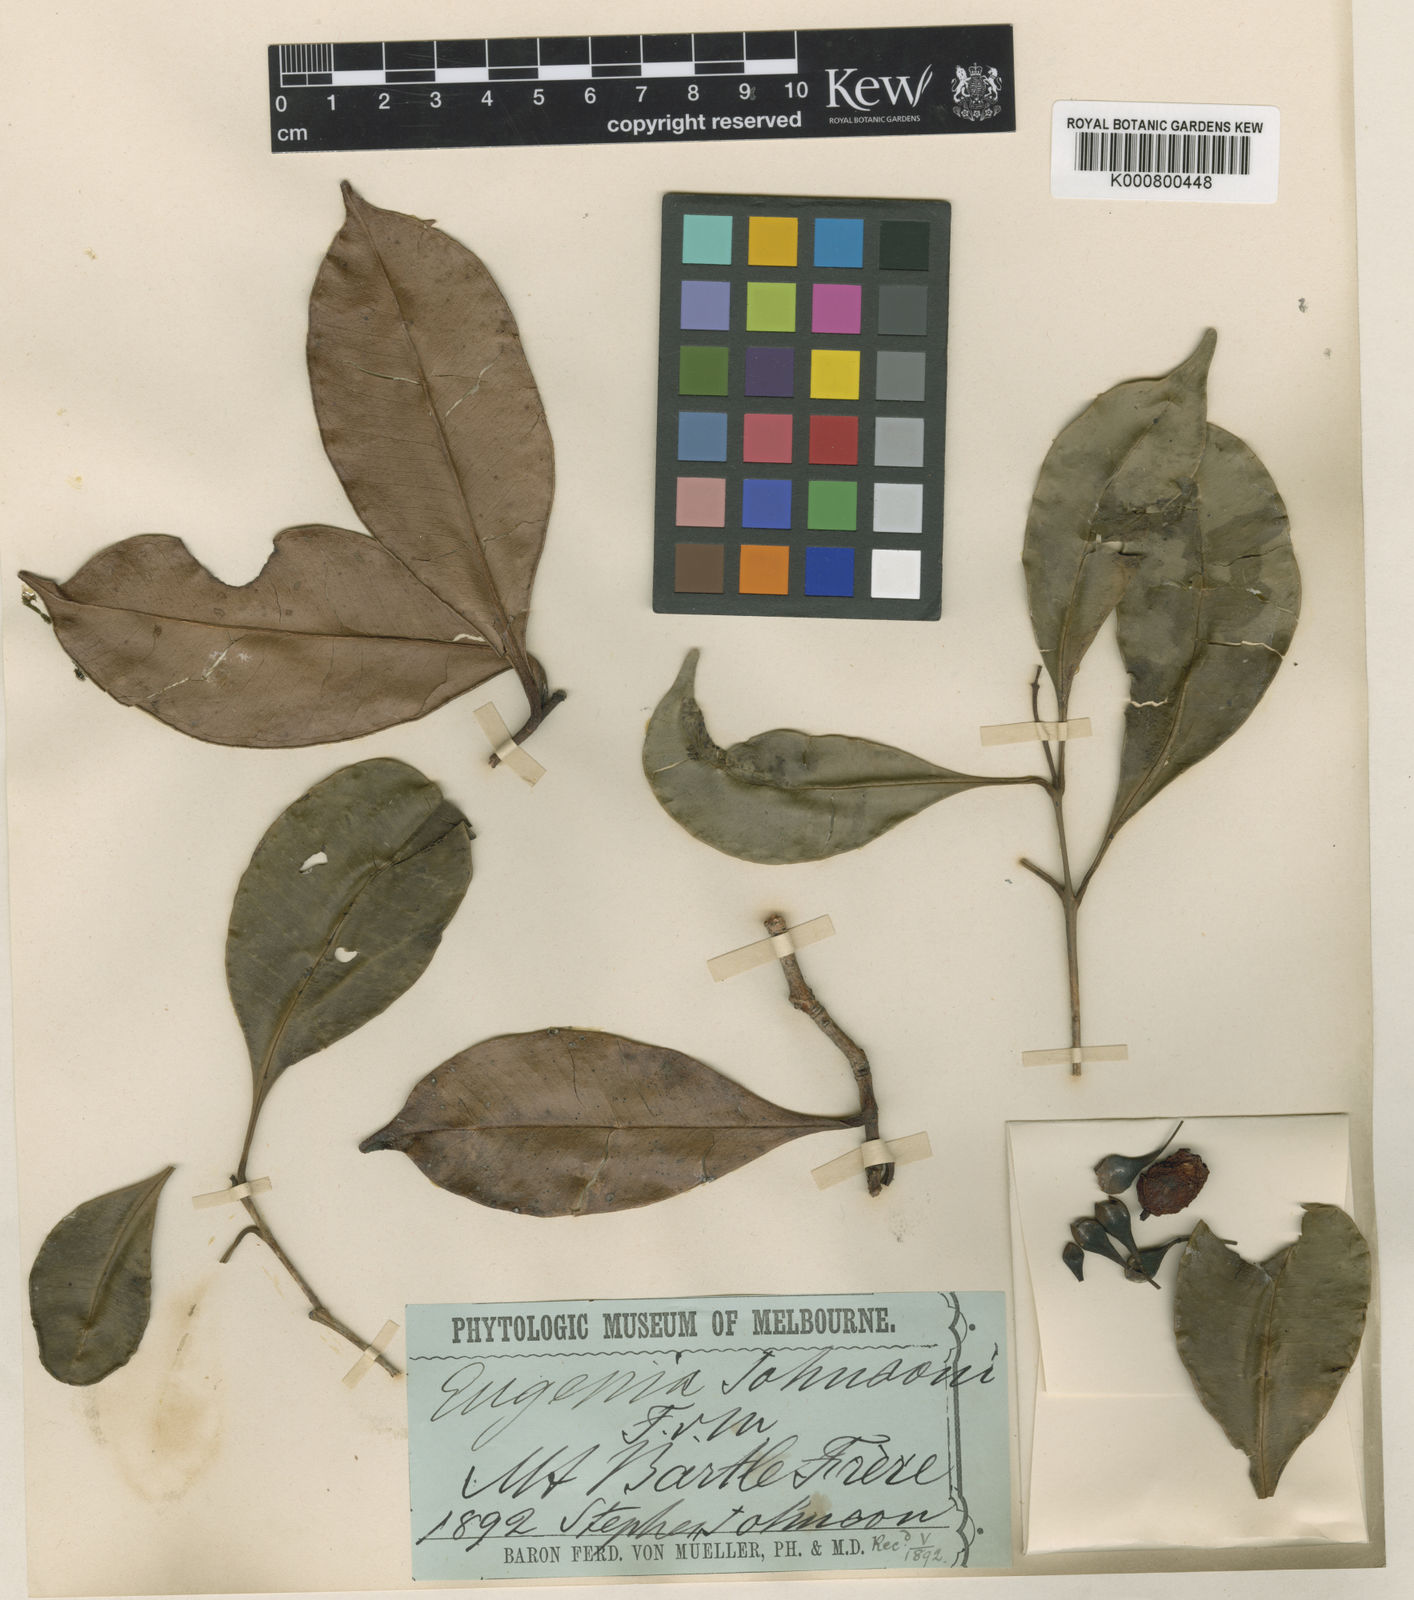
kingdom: Plantae
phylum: Tracheophyta
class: Magnoliopsida
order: Myrtales
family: Myrtaceae
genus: Syzygium
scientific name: Syzygium johnsonii
